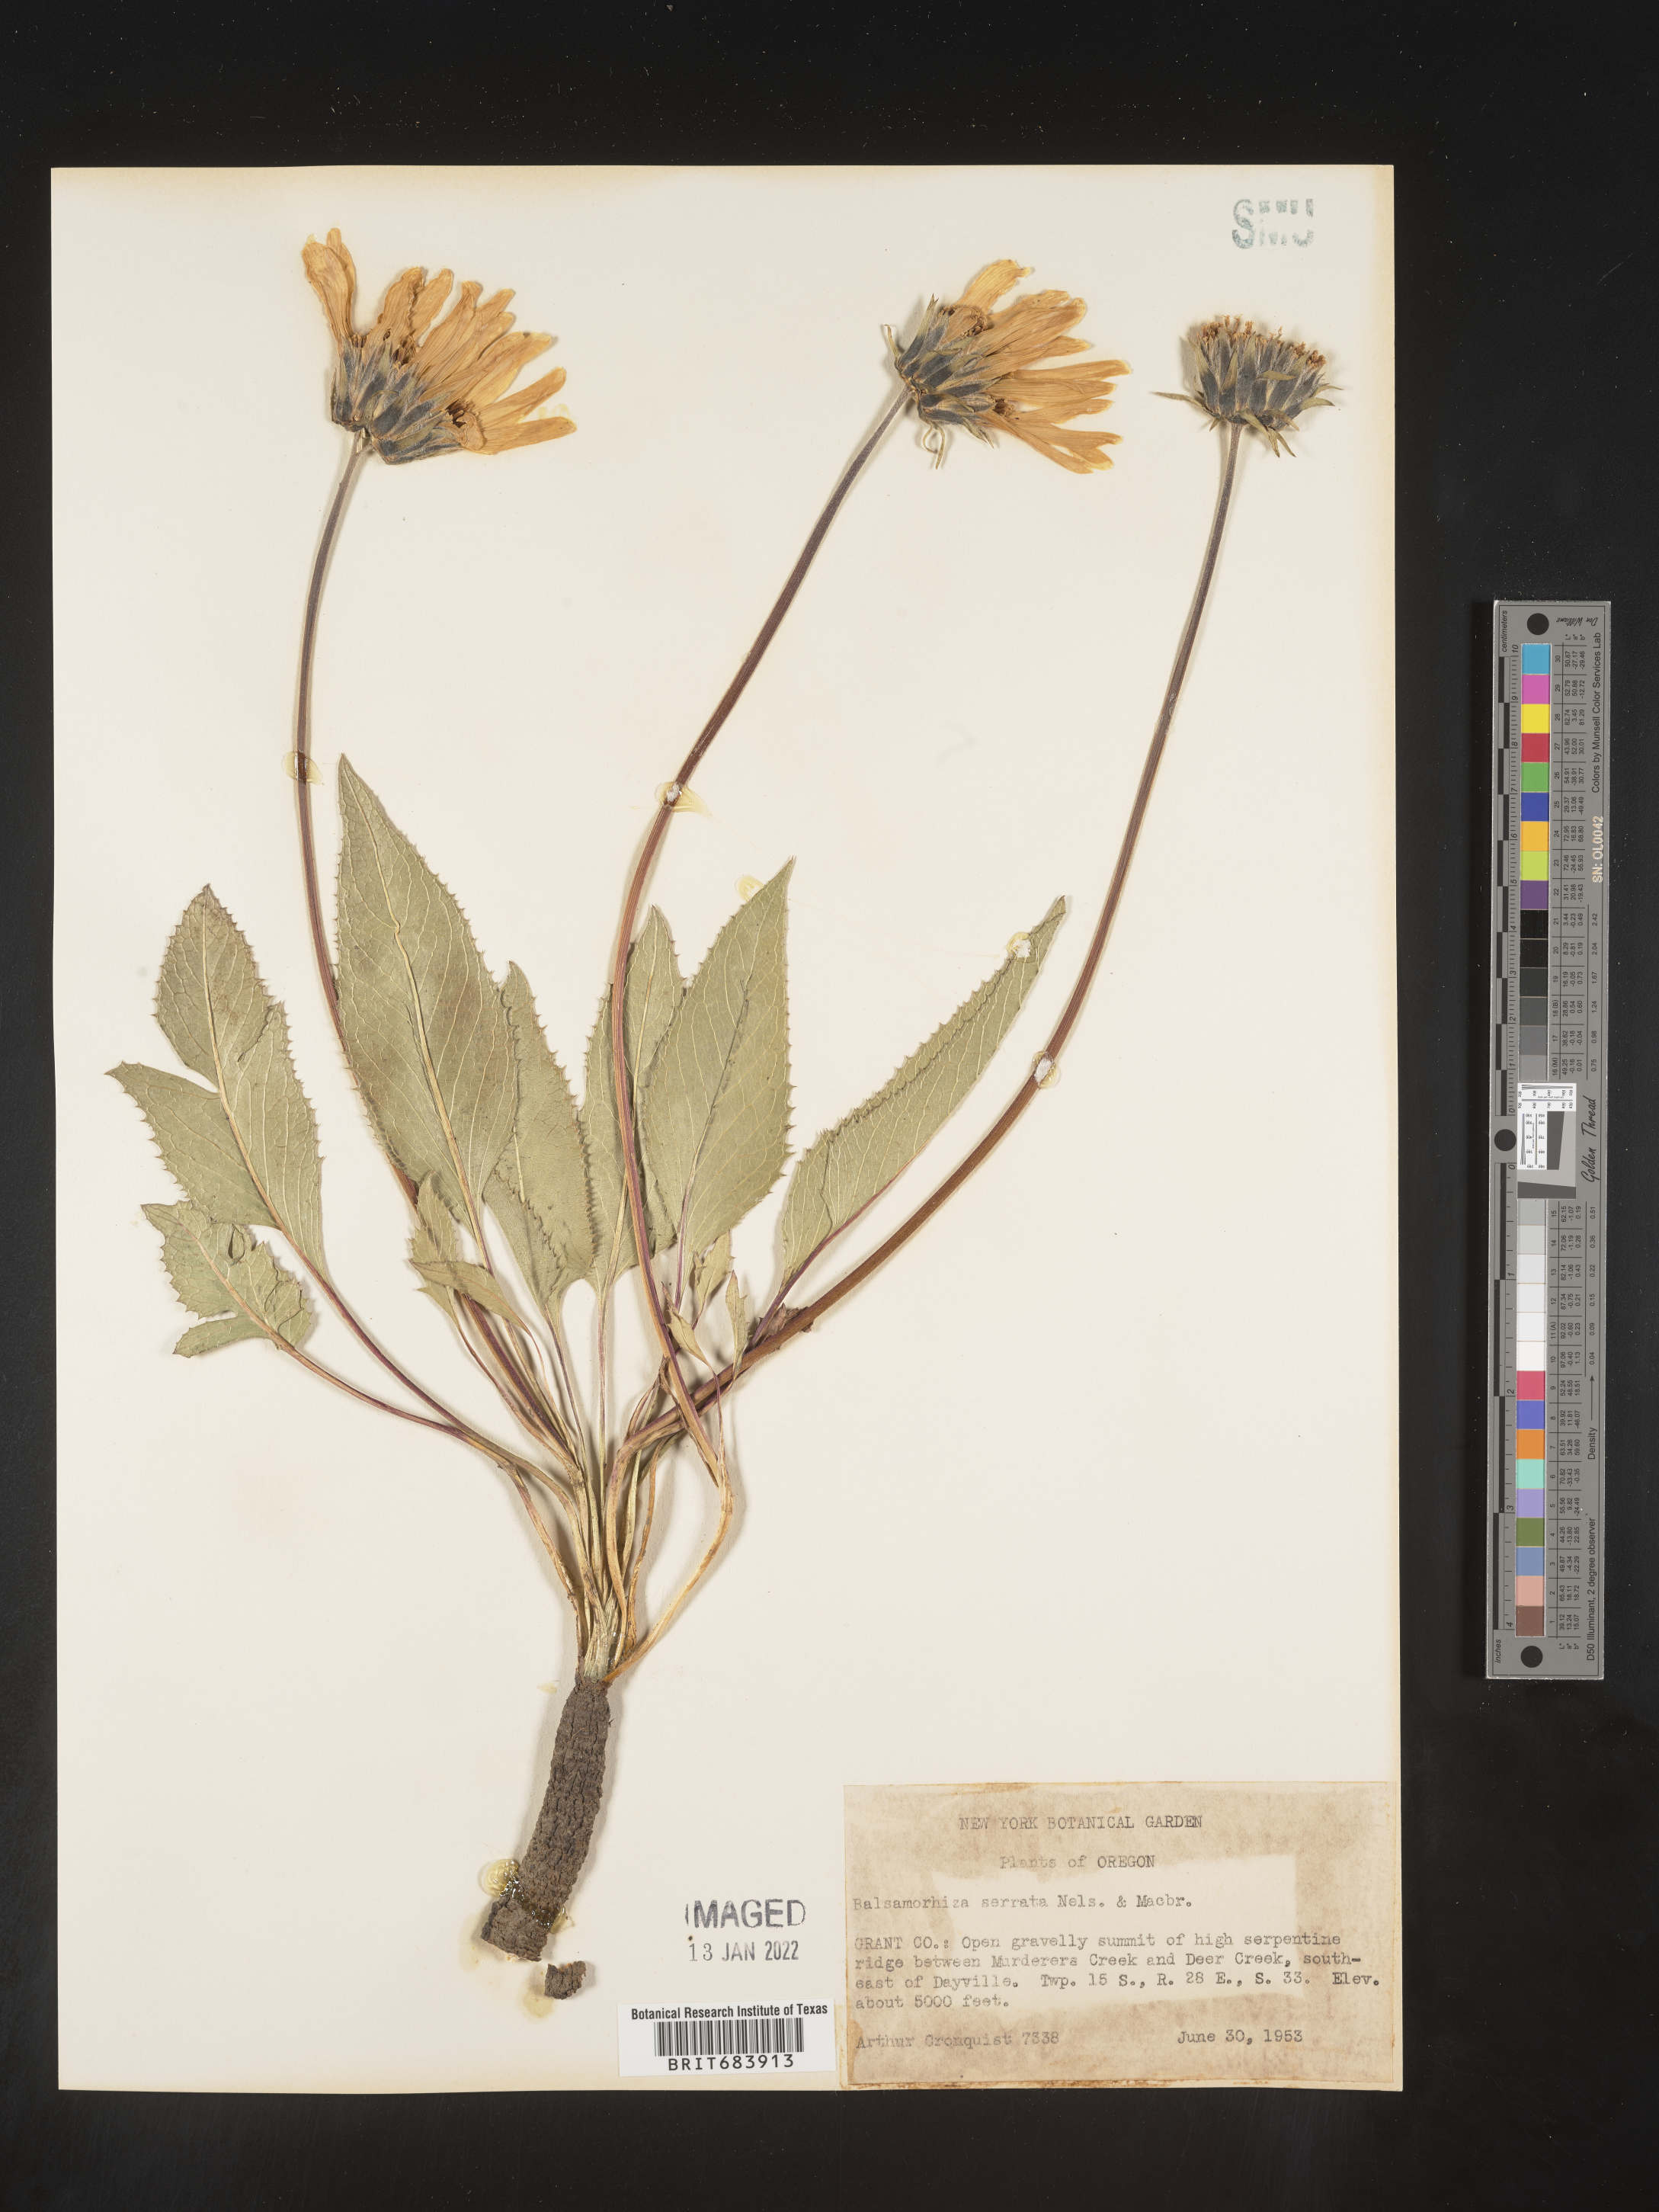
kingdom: Plantae
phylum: Tracheophyta
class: Magnoliopsida
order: Asterales
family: Asteraceae
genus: Balsamorhiza
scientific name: Balsamorhiza serrata
